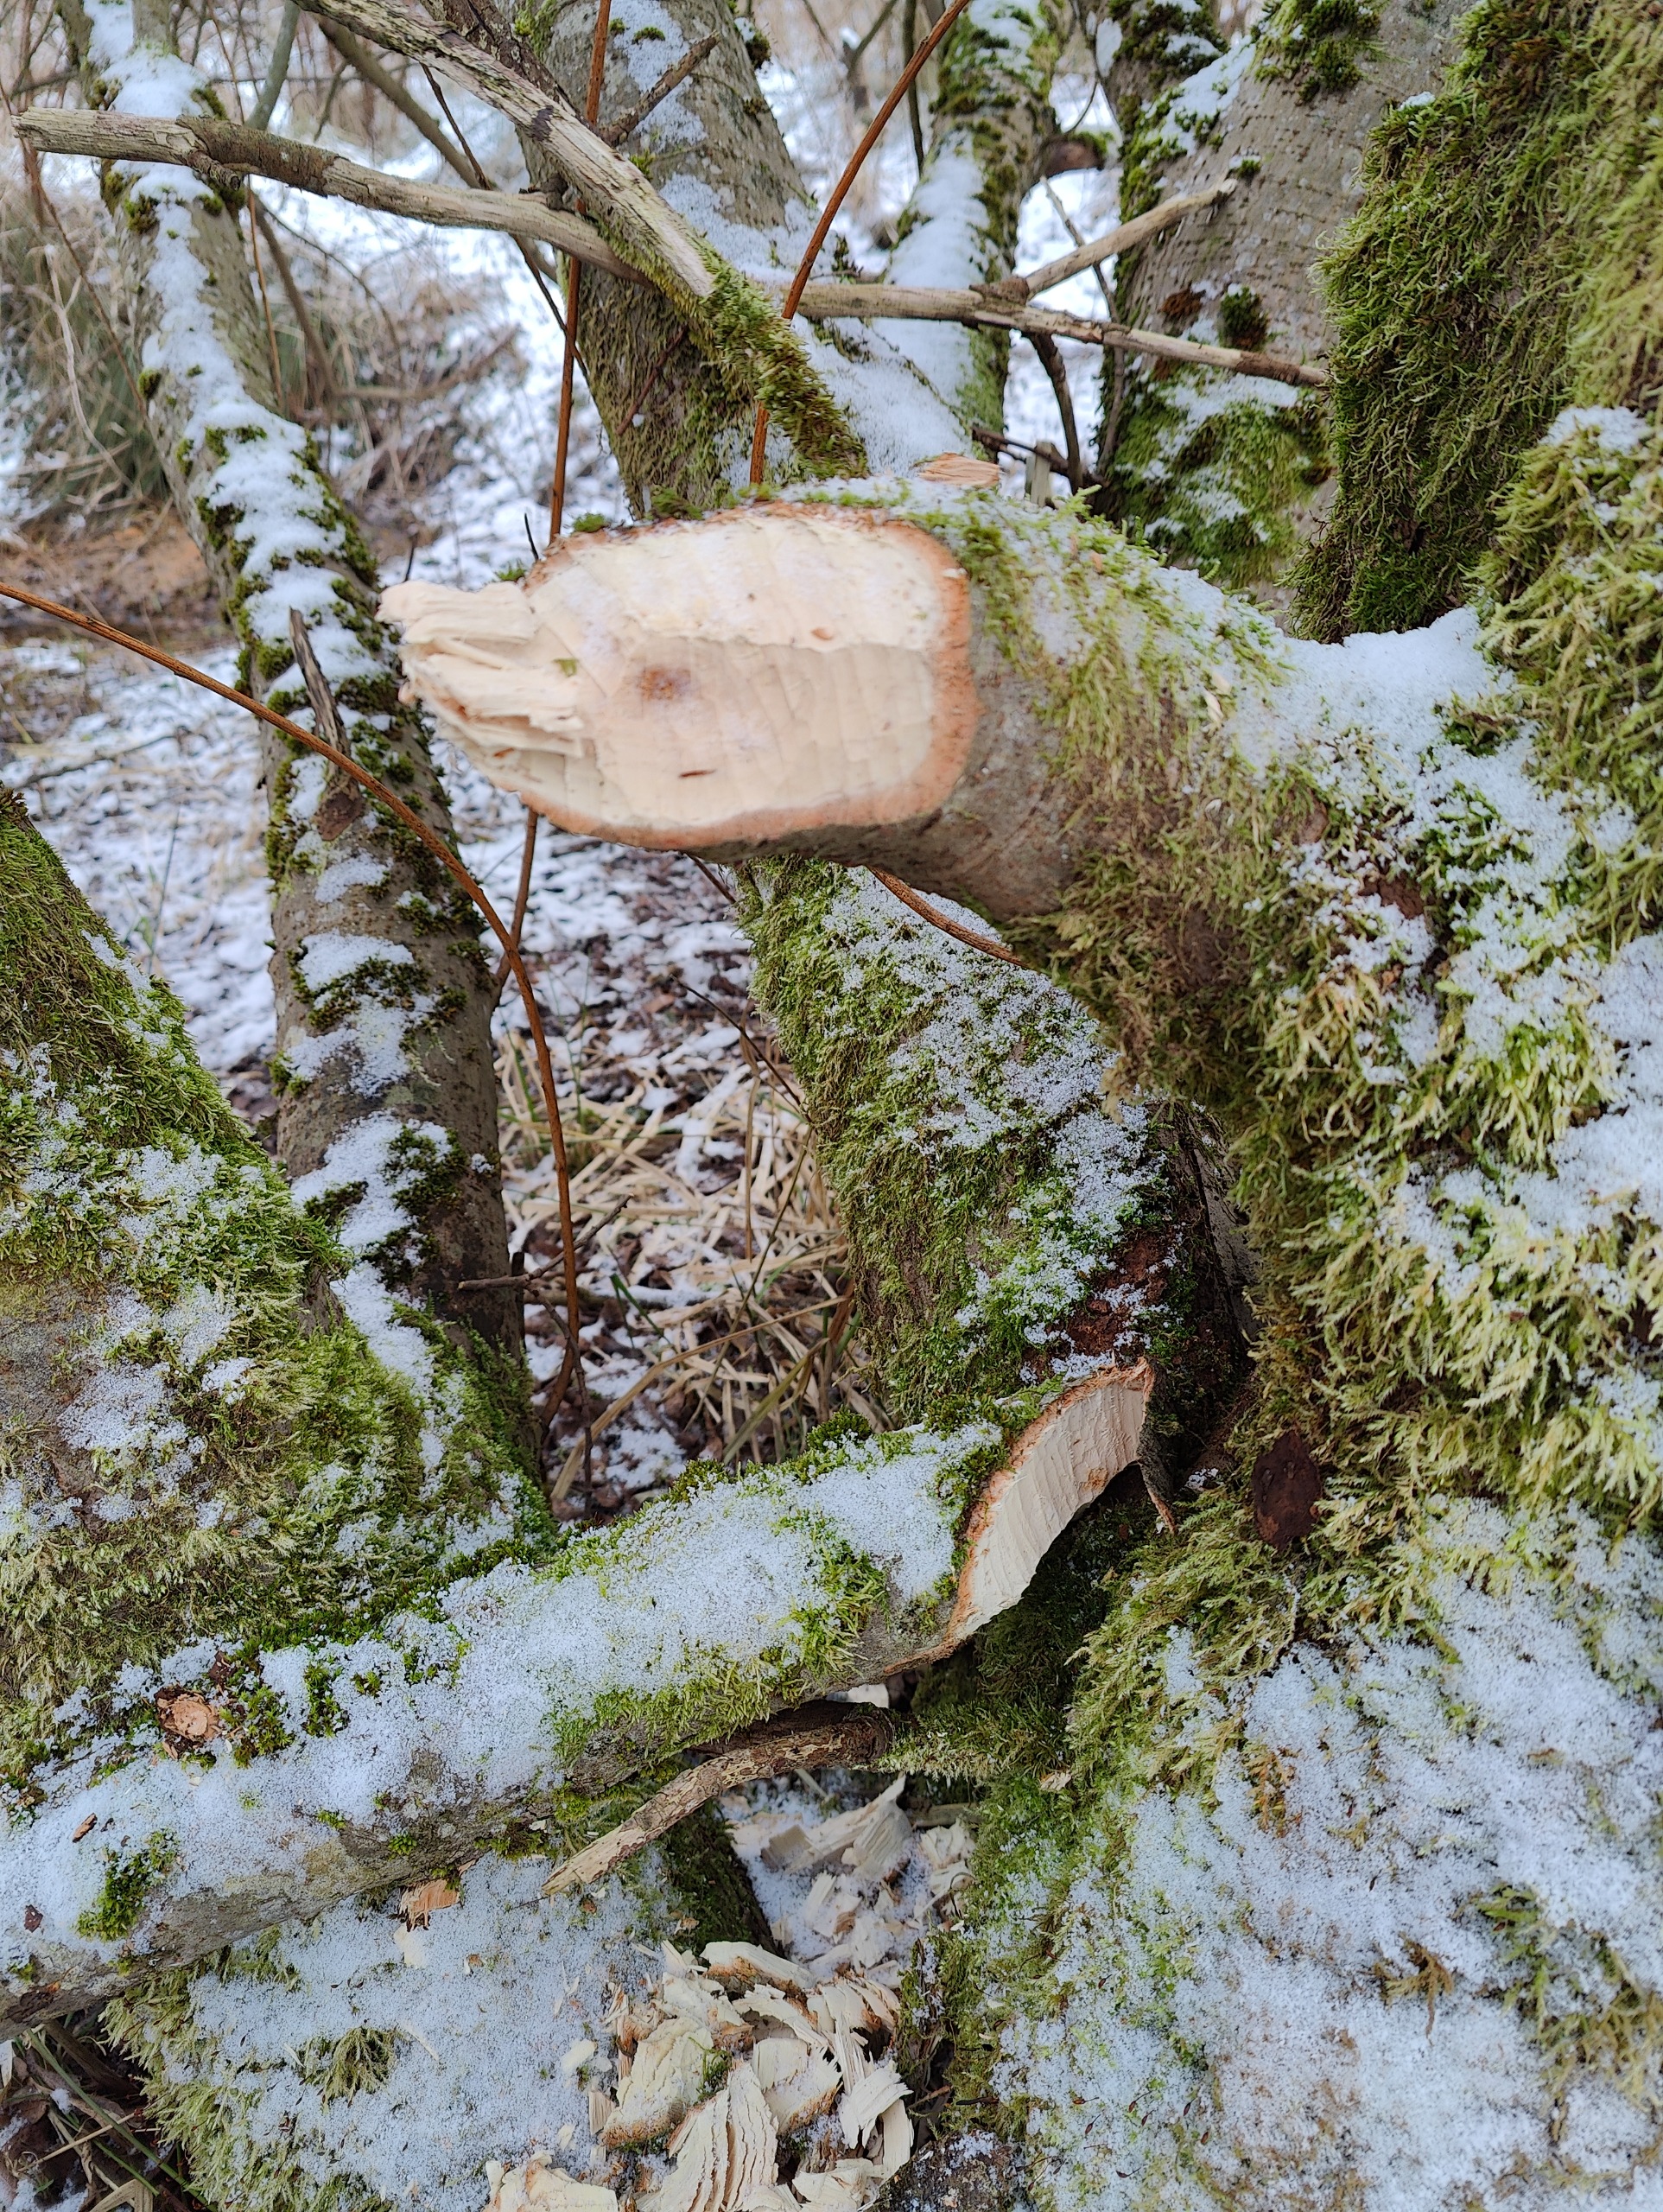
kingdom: Animalia
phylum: Chordata
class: Mammalia
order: Rodentia
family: Castoridae
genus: Castor
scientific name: Castor fiber
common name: Bæver
